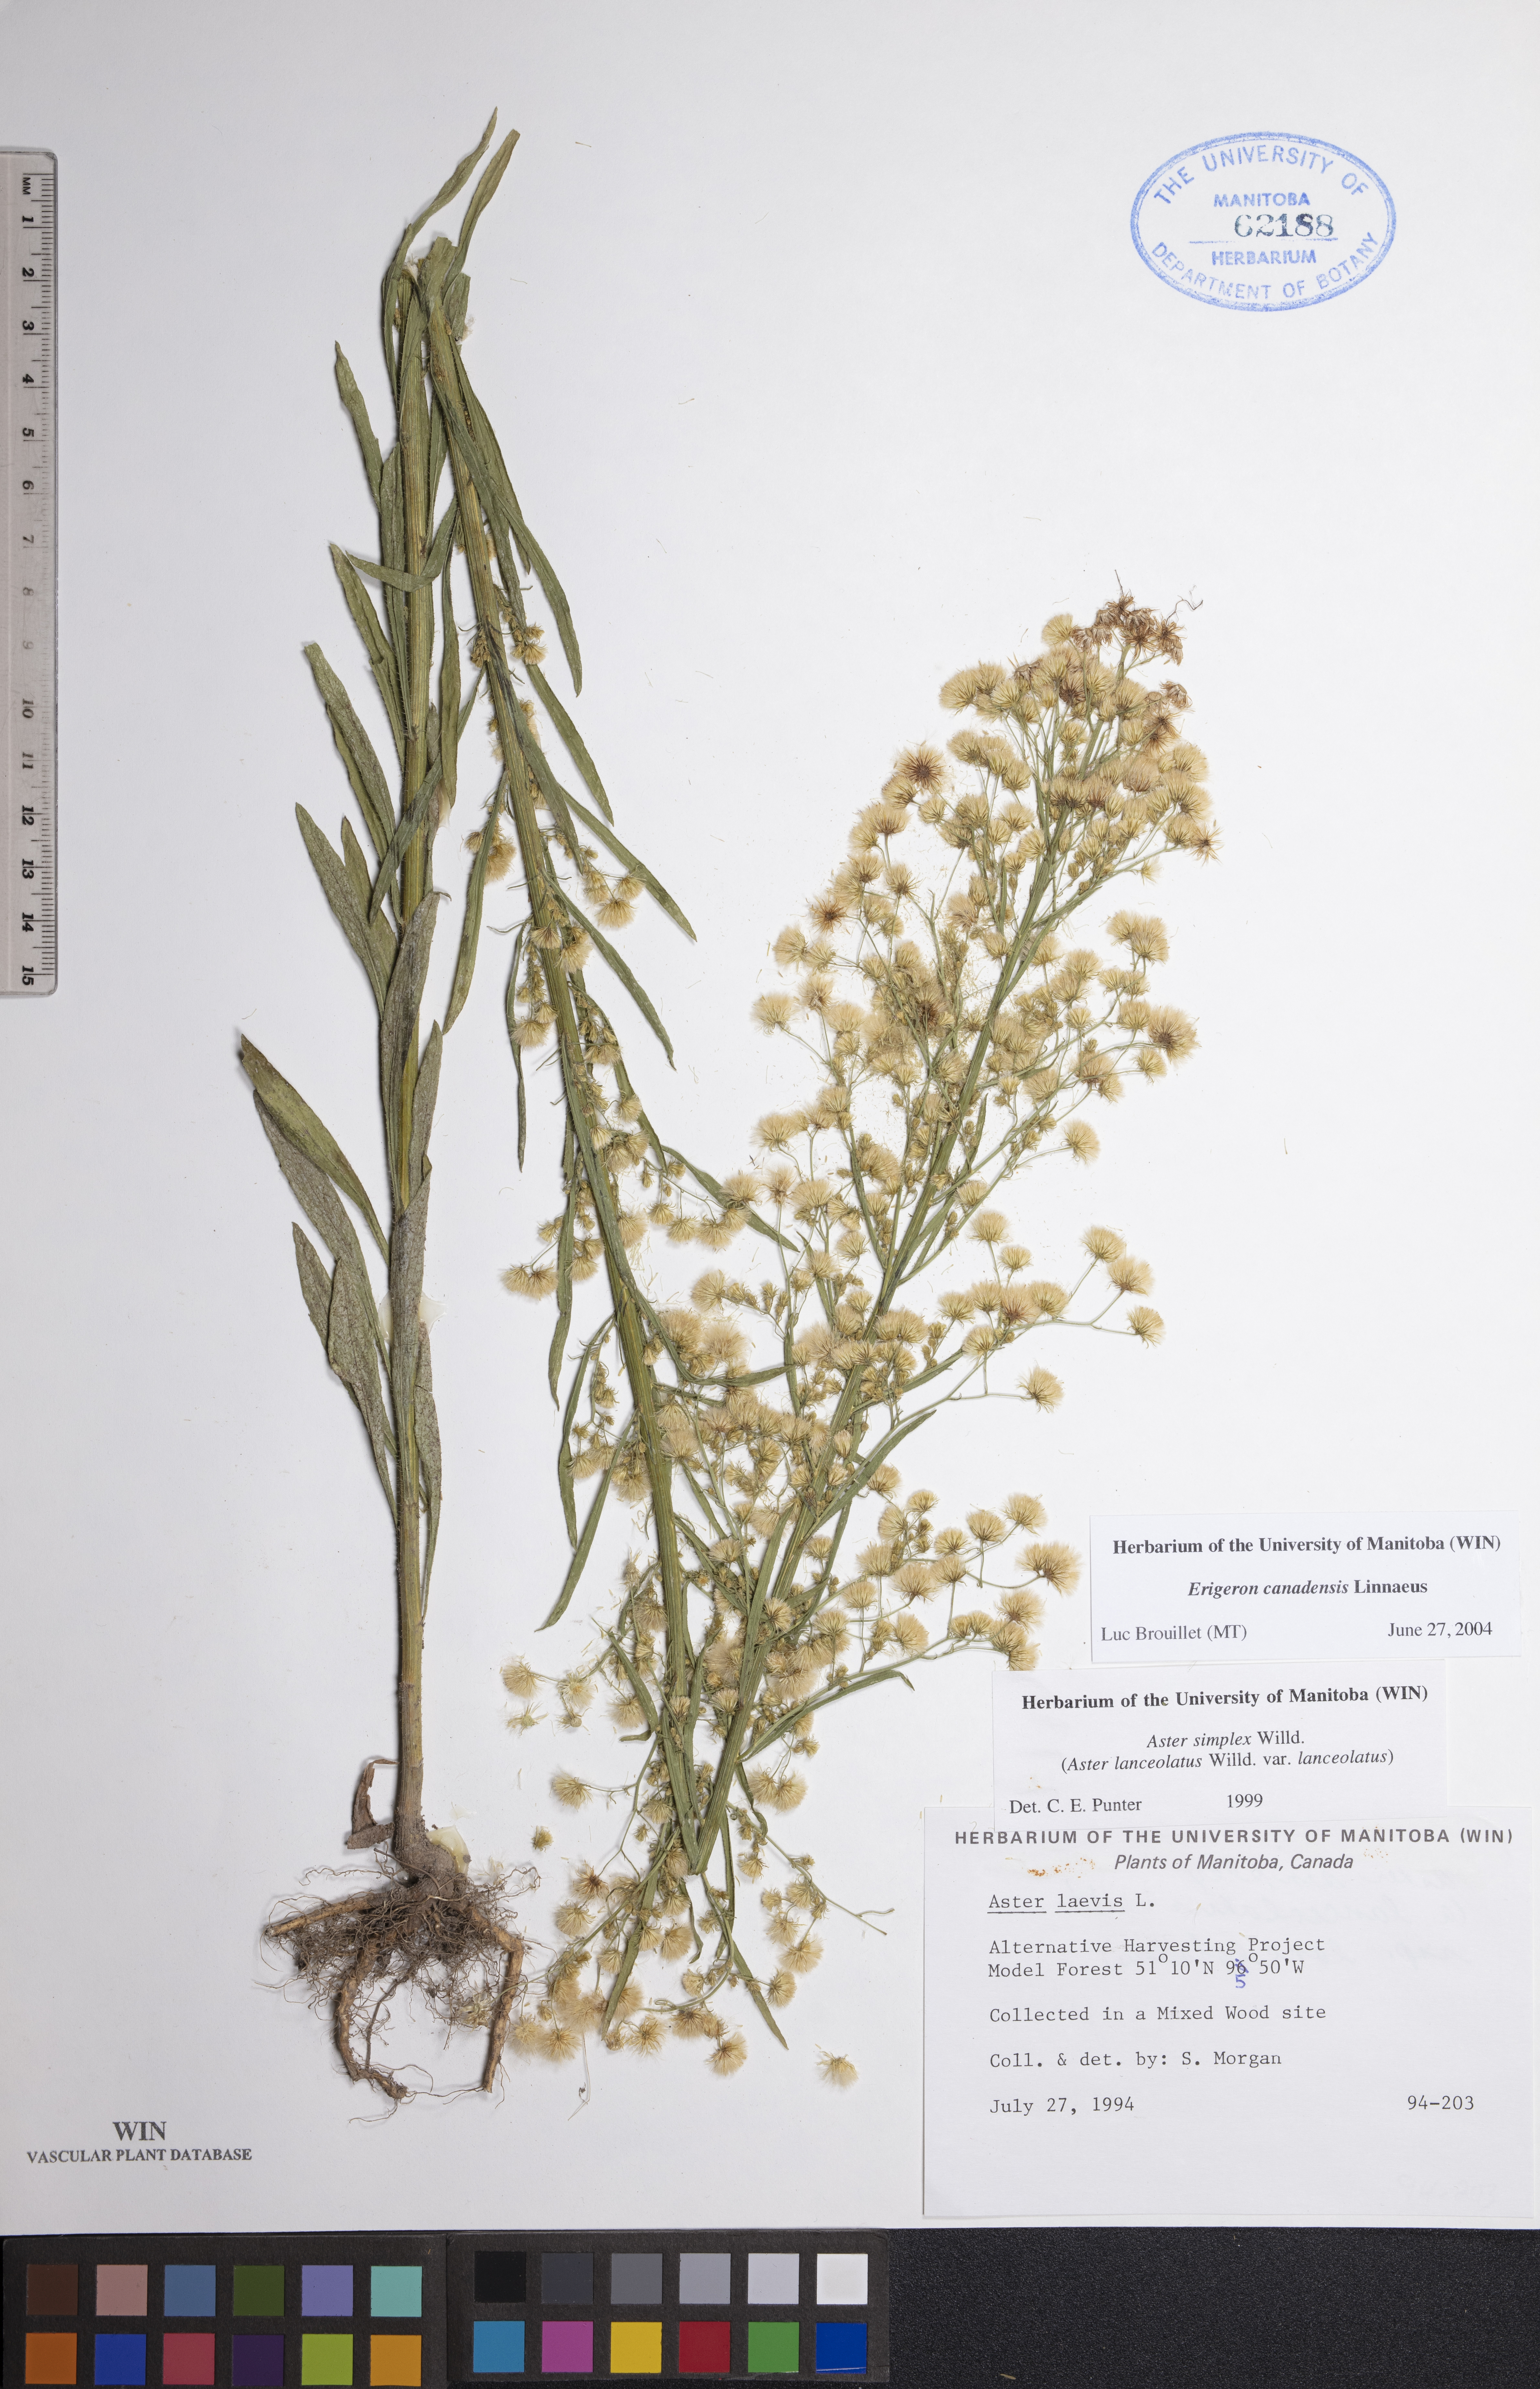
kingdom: Plantae
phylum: Tracheophyta
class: Magnoliopsida
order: Asterales
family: Asteraceae
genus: Erigeron
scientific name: Erigeron canadensis
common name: Canadian fleabane
